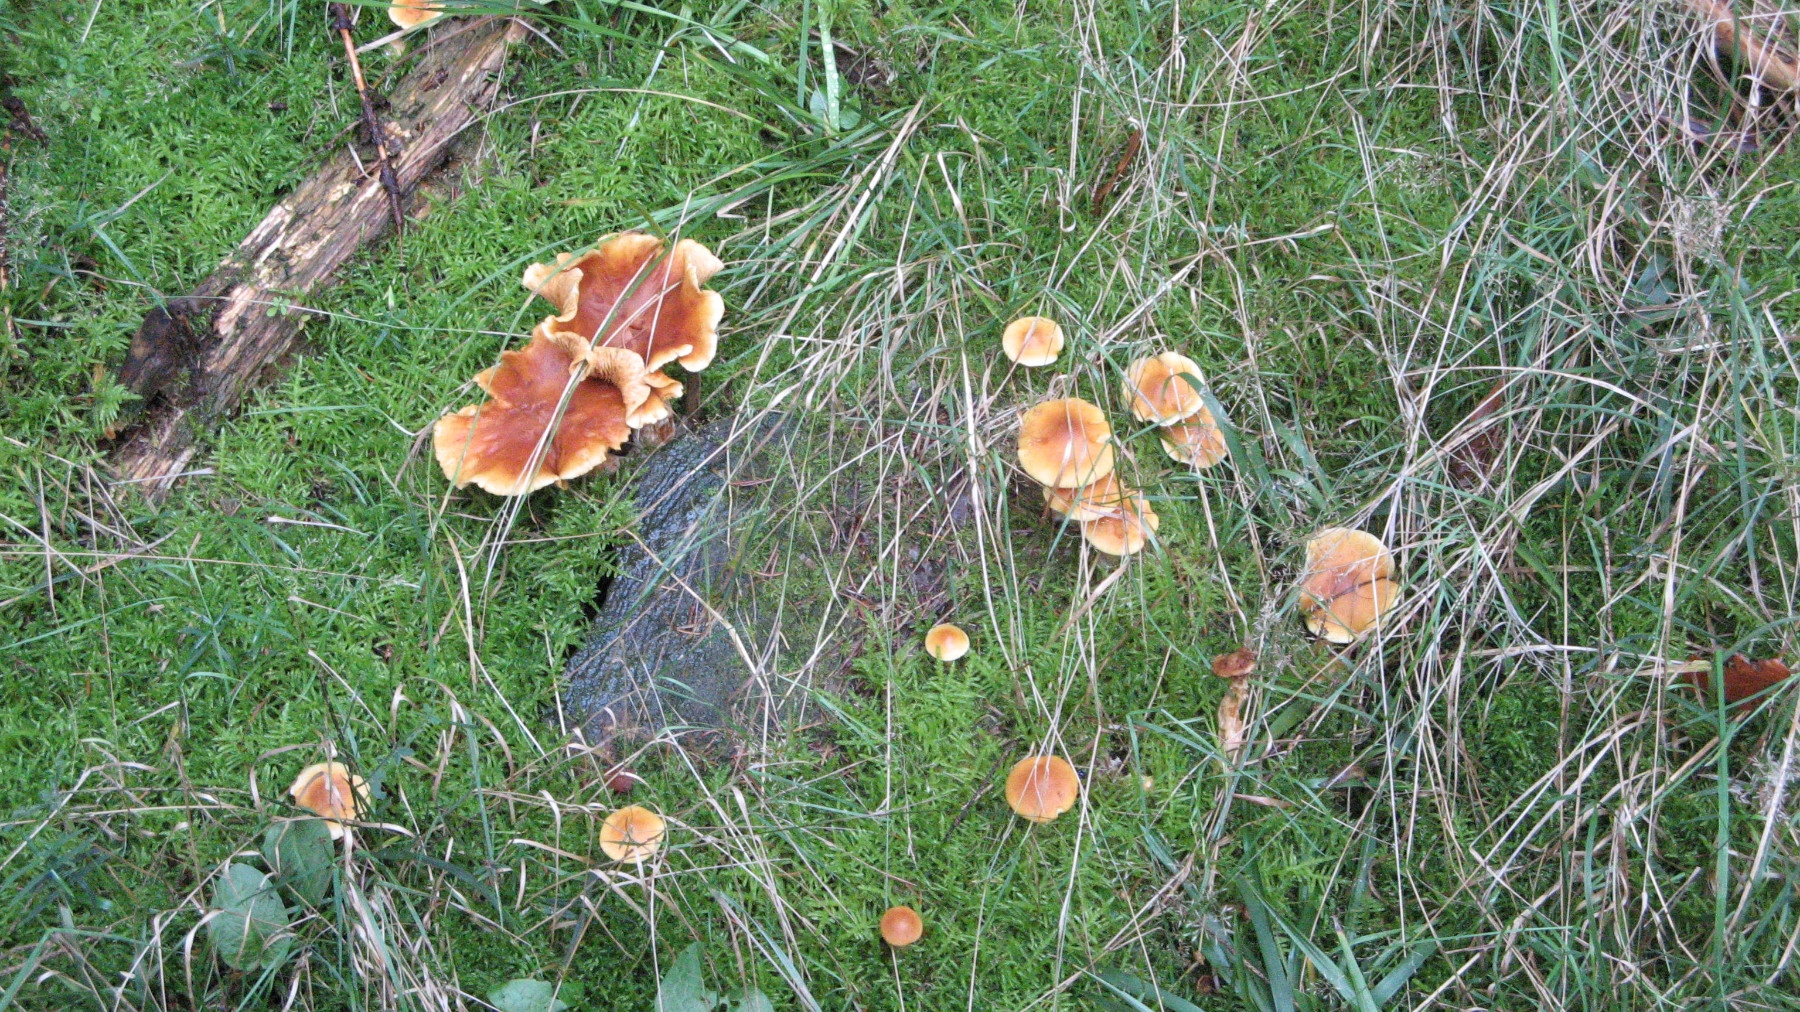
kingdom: Fungi
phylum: Basidiomycota
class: Agaricomycetes
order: Agaricales
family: Hymenogastraceae
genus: Gymnopilus
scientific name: Gymnopilus penetrans
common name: plettet flammehat
